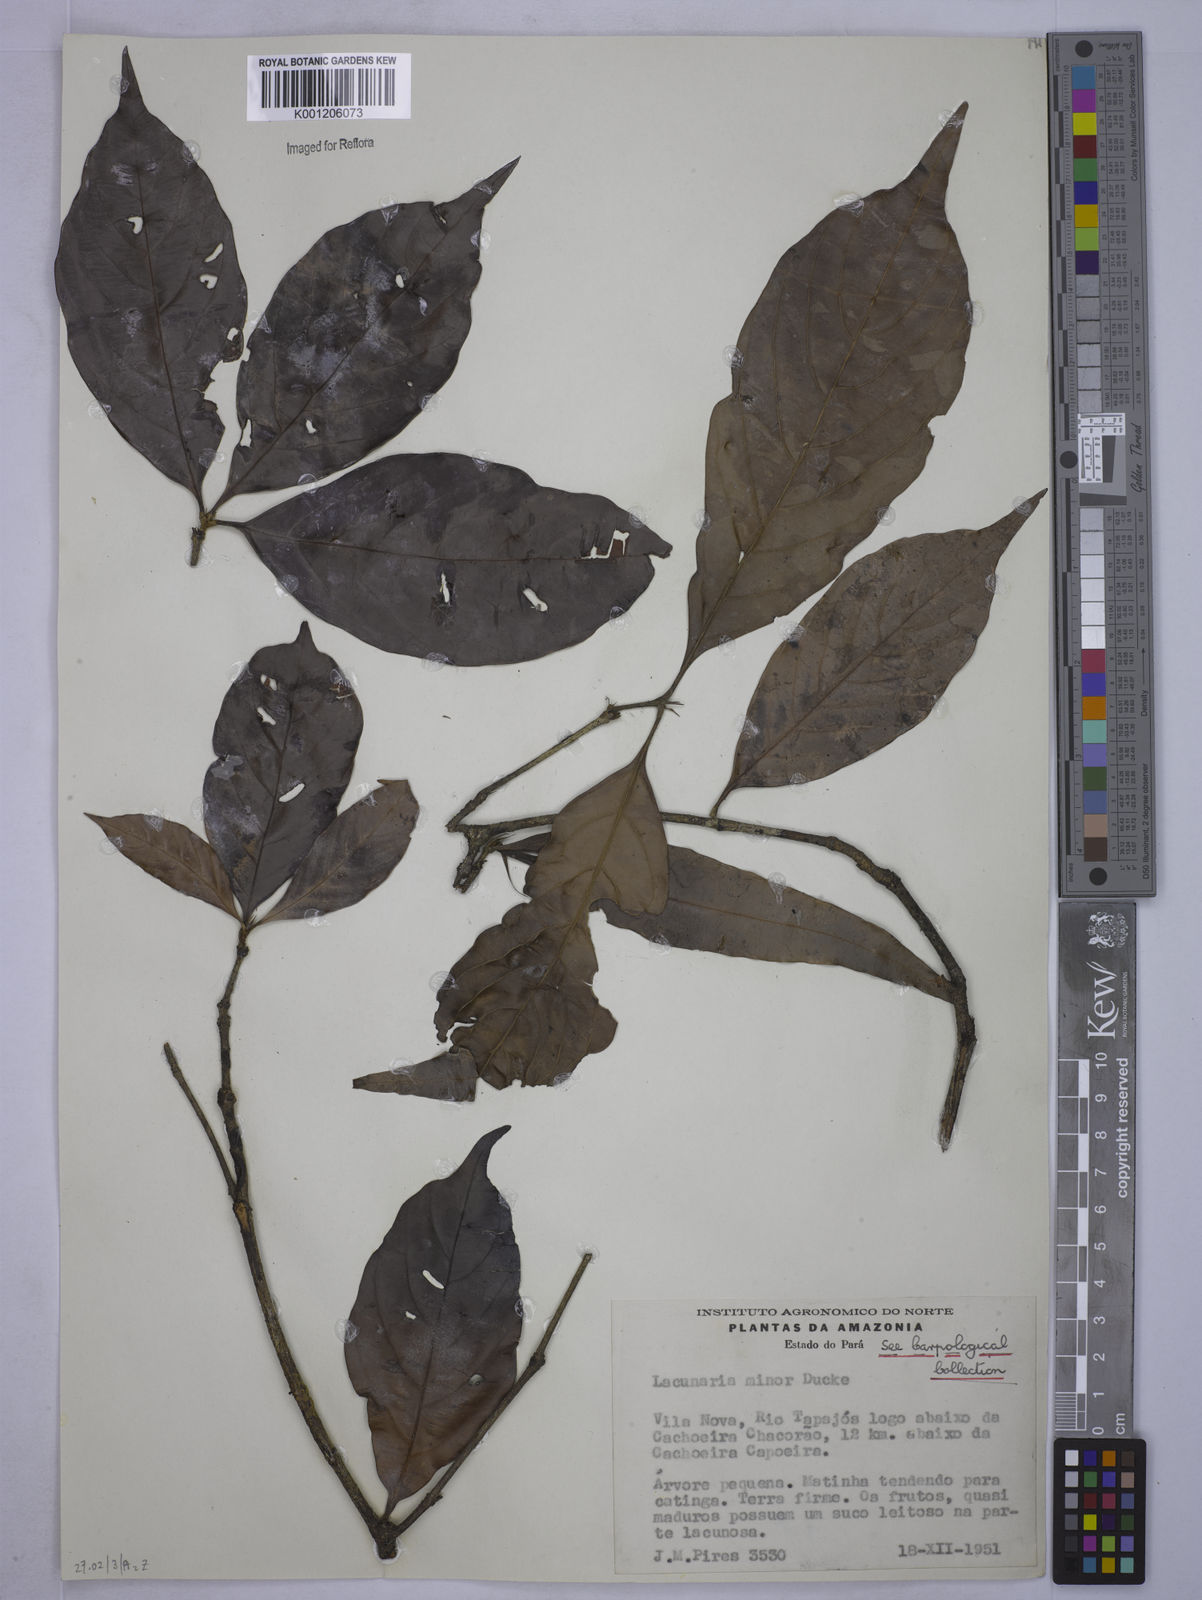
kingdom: Plantae
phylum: Tracheophyta
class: Magnoliopsida
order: Malpighiales
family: Quiinaceae
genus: Lacunaria
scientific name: Lacunaria macrostachya
